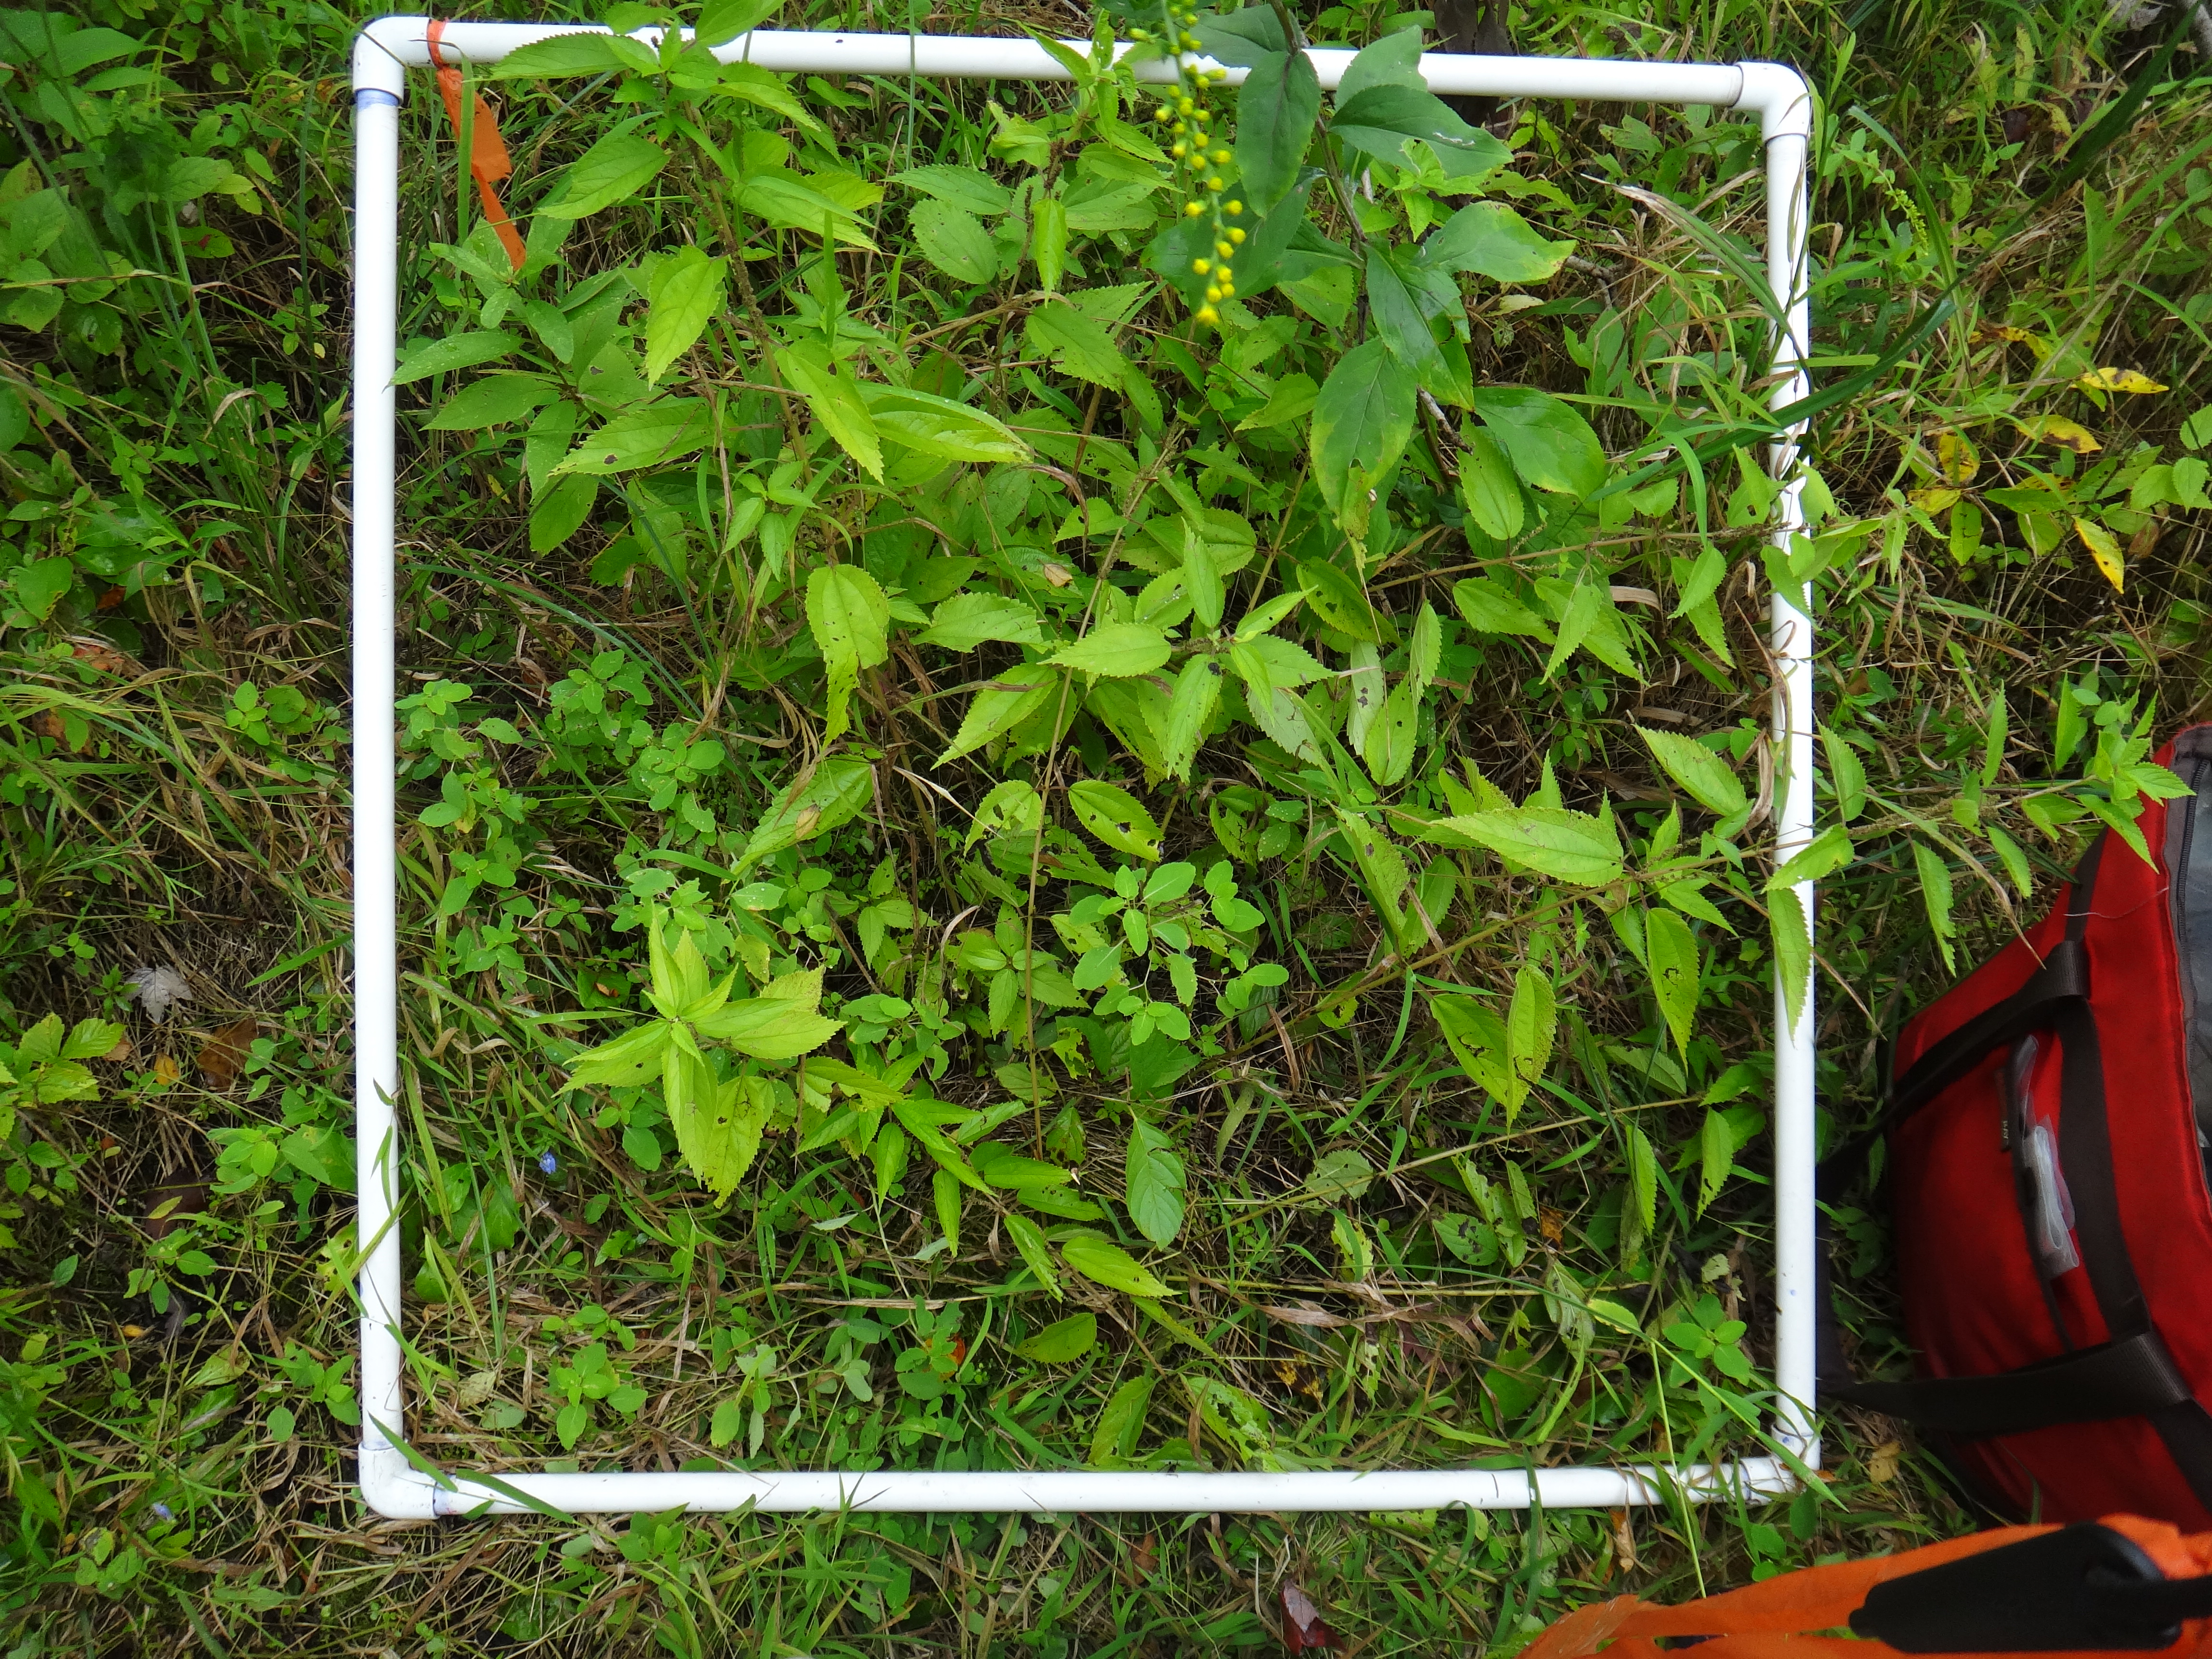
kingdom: Plantae
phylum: Tracheophyta
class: Magnoliopsida
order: Asterales
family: Asteraceae
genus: Solidago
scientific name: Solidago patula
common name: Rough-leaf goldenrod
